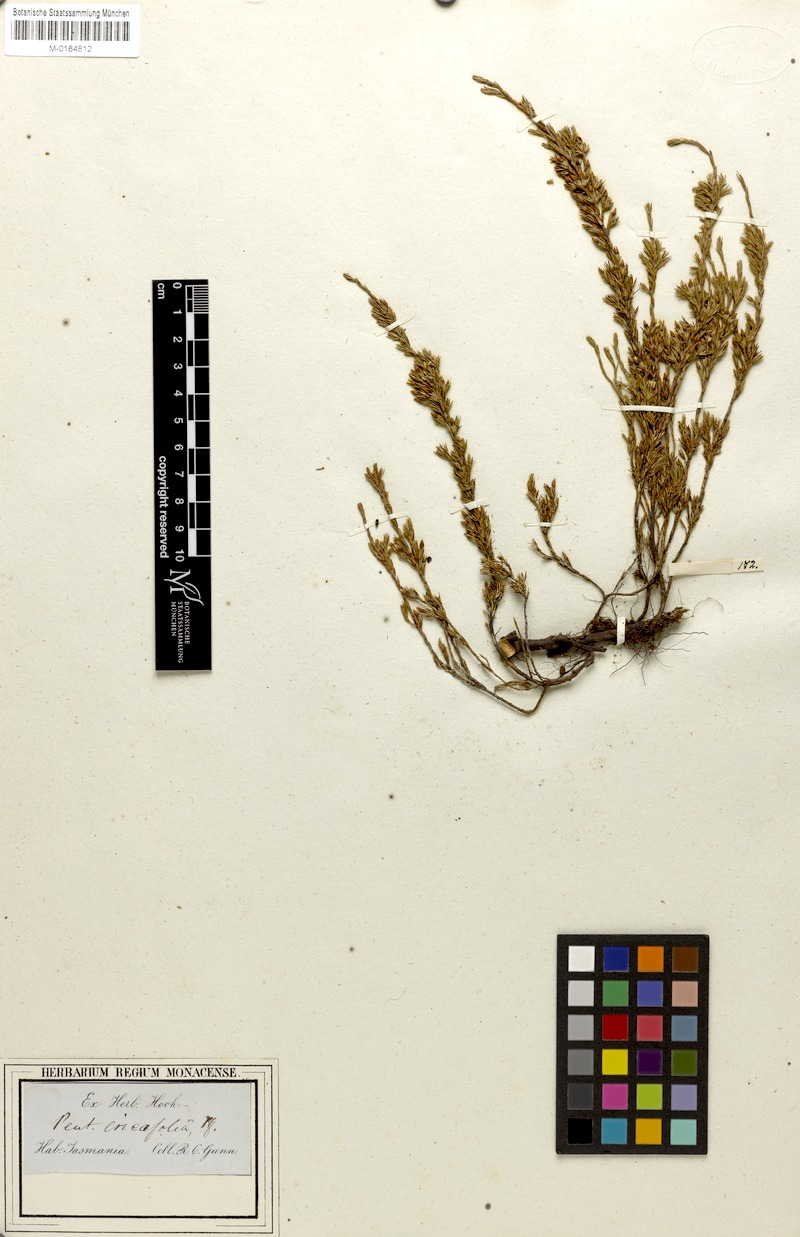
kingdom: Plantae
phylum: Tracheophyta
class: Magnoliopsida
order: Ericales
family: Ericaceae
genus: Pentachondra
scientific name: Pentachondra ericifolia
